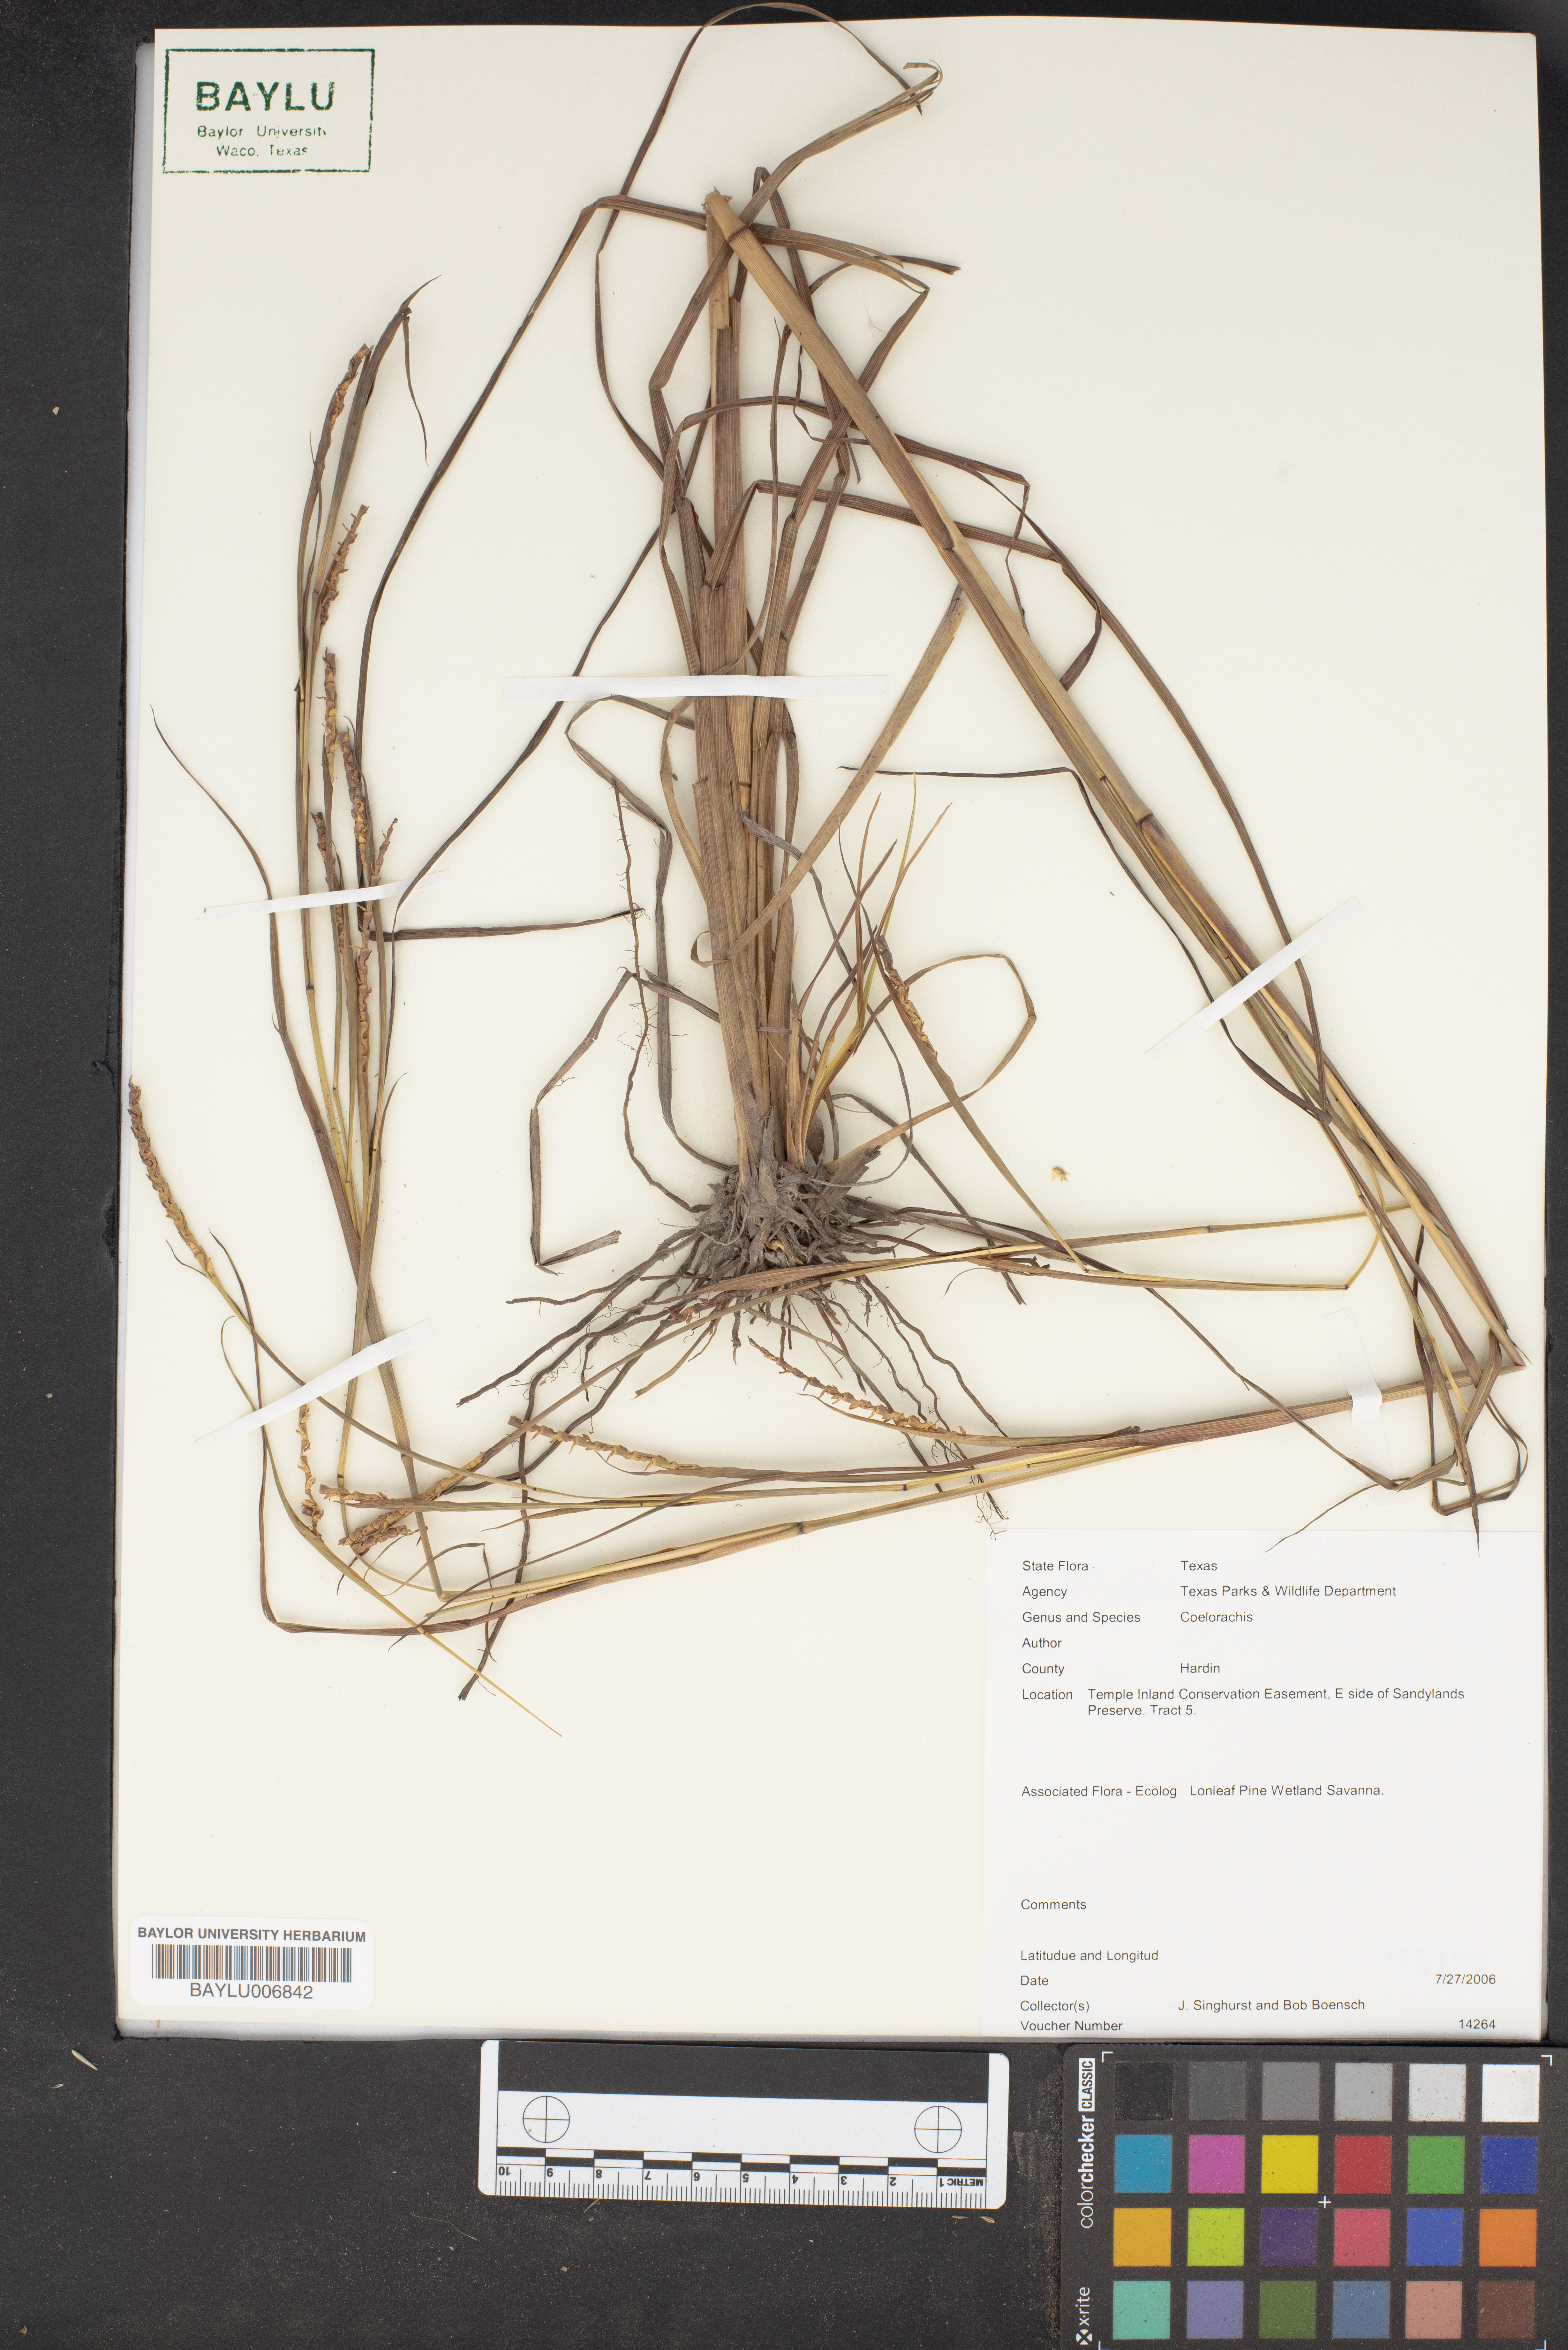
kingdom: Plantae
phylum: Tracheophyta
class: Liliopsida
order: Poales
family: Poaceae
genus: Rottboellia
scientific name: Rottboellia
